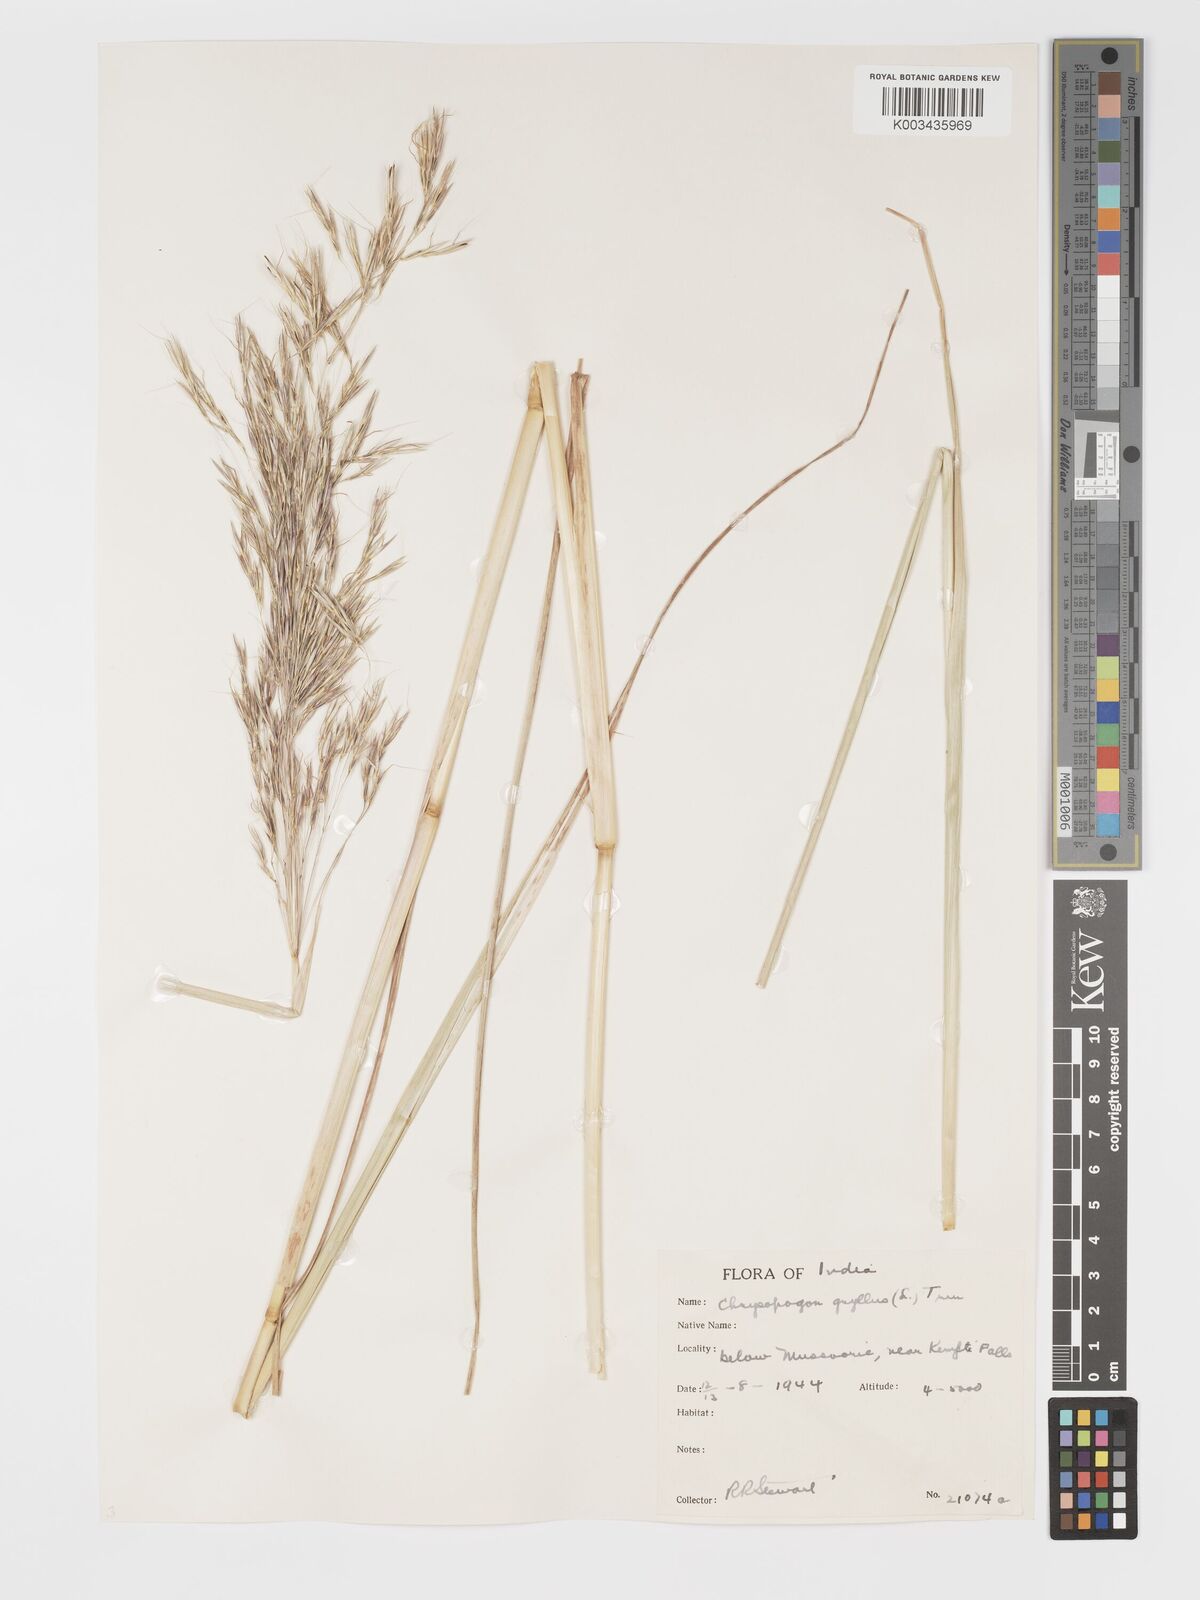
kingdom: Plantae
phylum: Tracheophyta
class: Liliopsida
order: Poales
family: Poaceae
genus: Chrysopogon
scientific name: Chrysopogon gryllus
